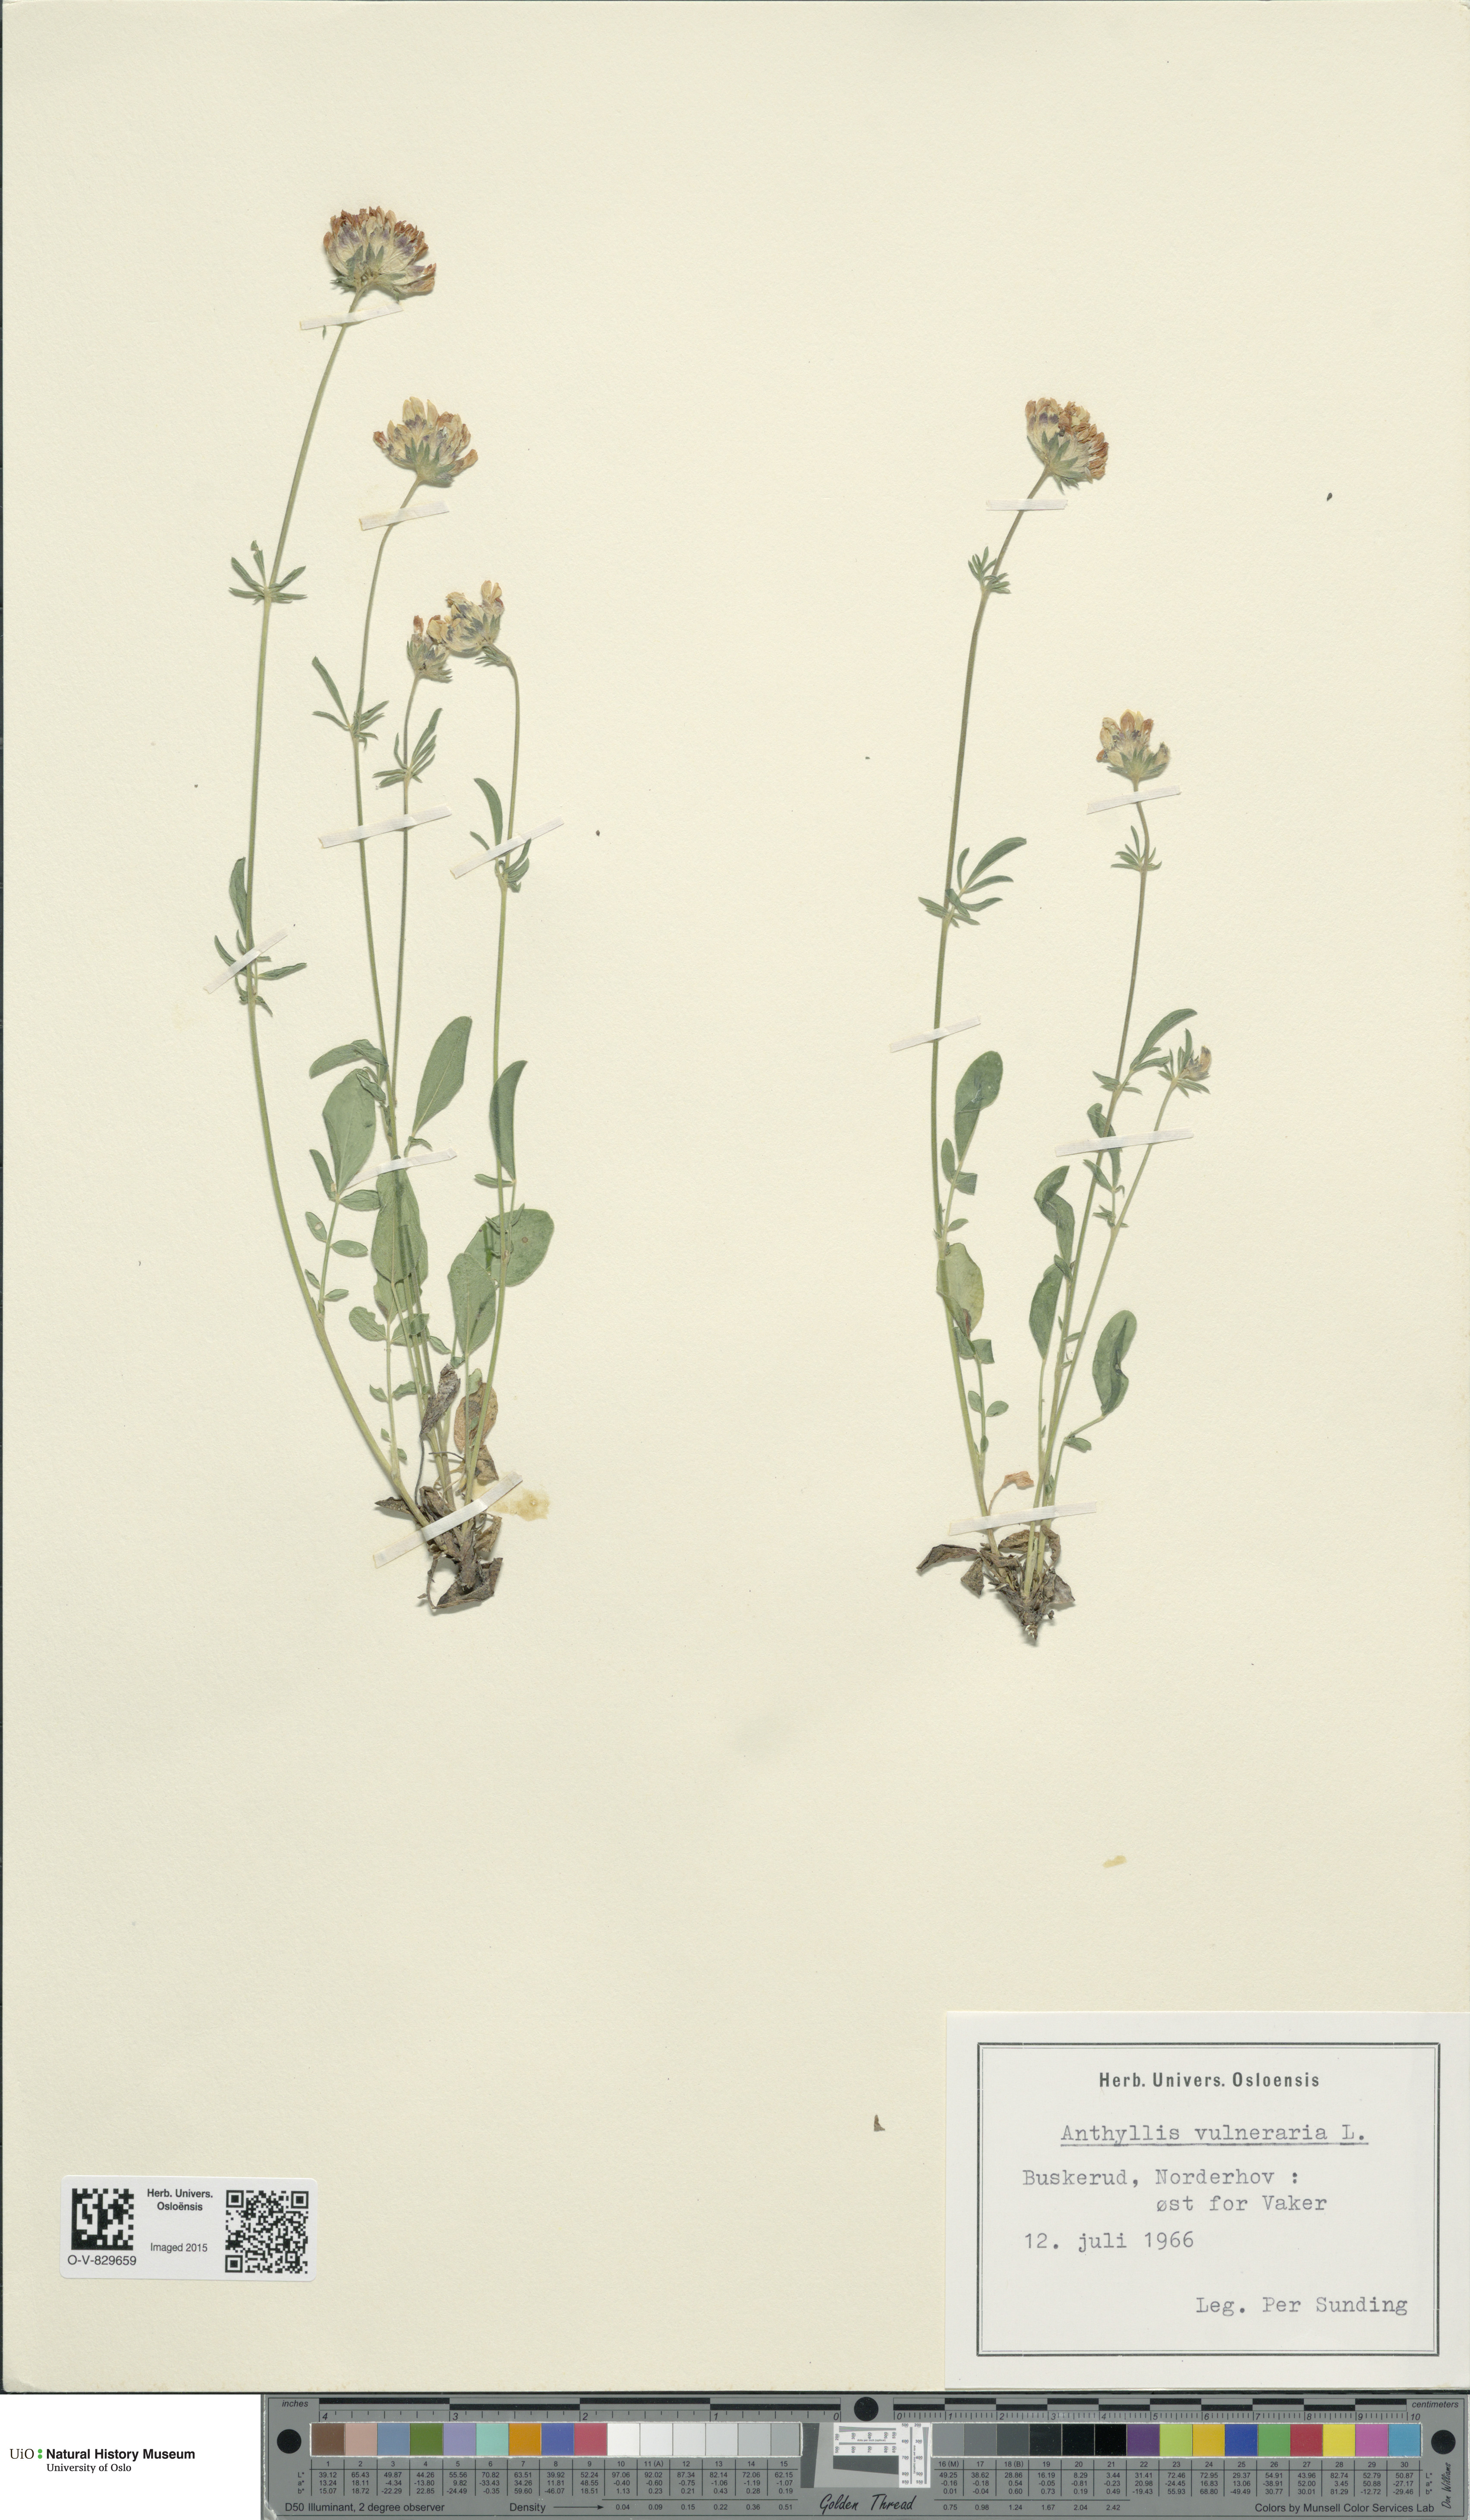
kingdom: Plantae
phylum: Tracheophyta
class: Magnoliopsida
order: Fabales
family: Fabaceae
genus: Anthyllis
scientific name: Anthyllis vulneraria
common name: Kidney vetch
